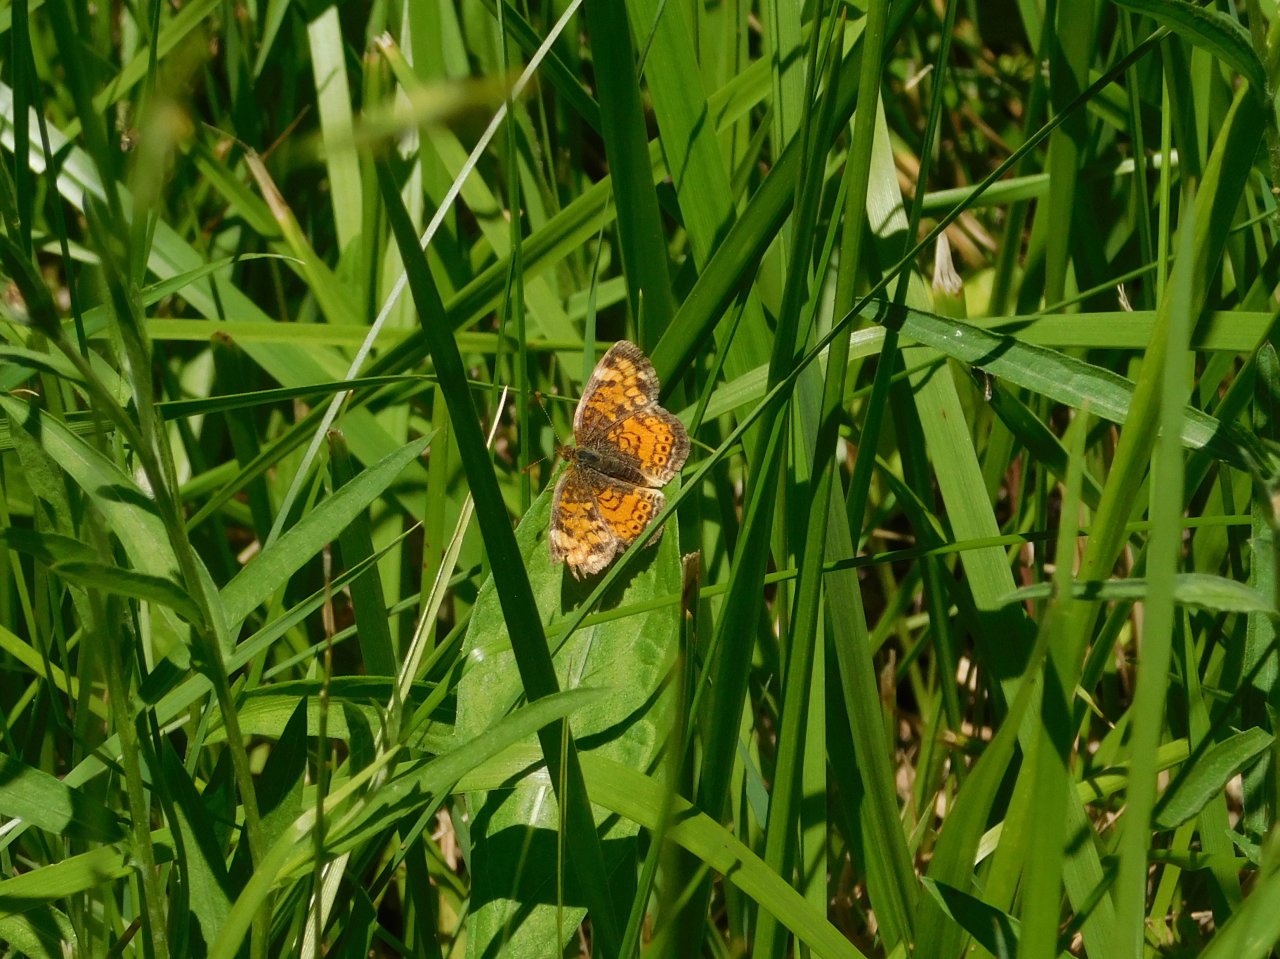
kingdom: Animalia
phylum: Arthropoda
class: Insecta
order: Lepidoptera
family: Nymphalidae
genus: Phyciodes
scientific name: Phyciodes
